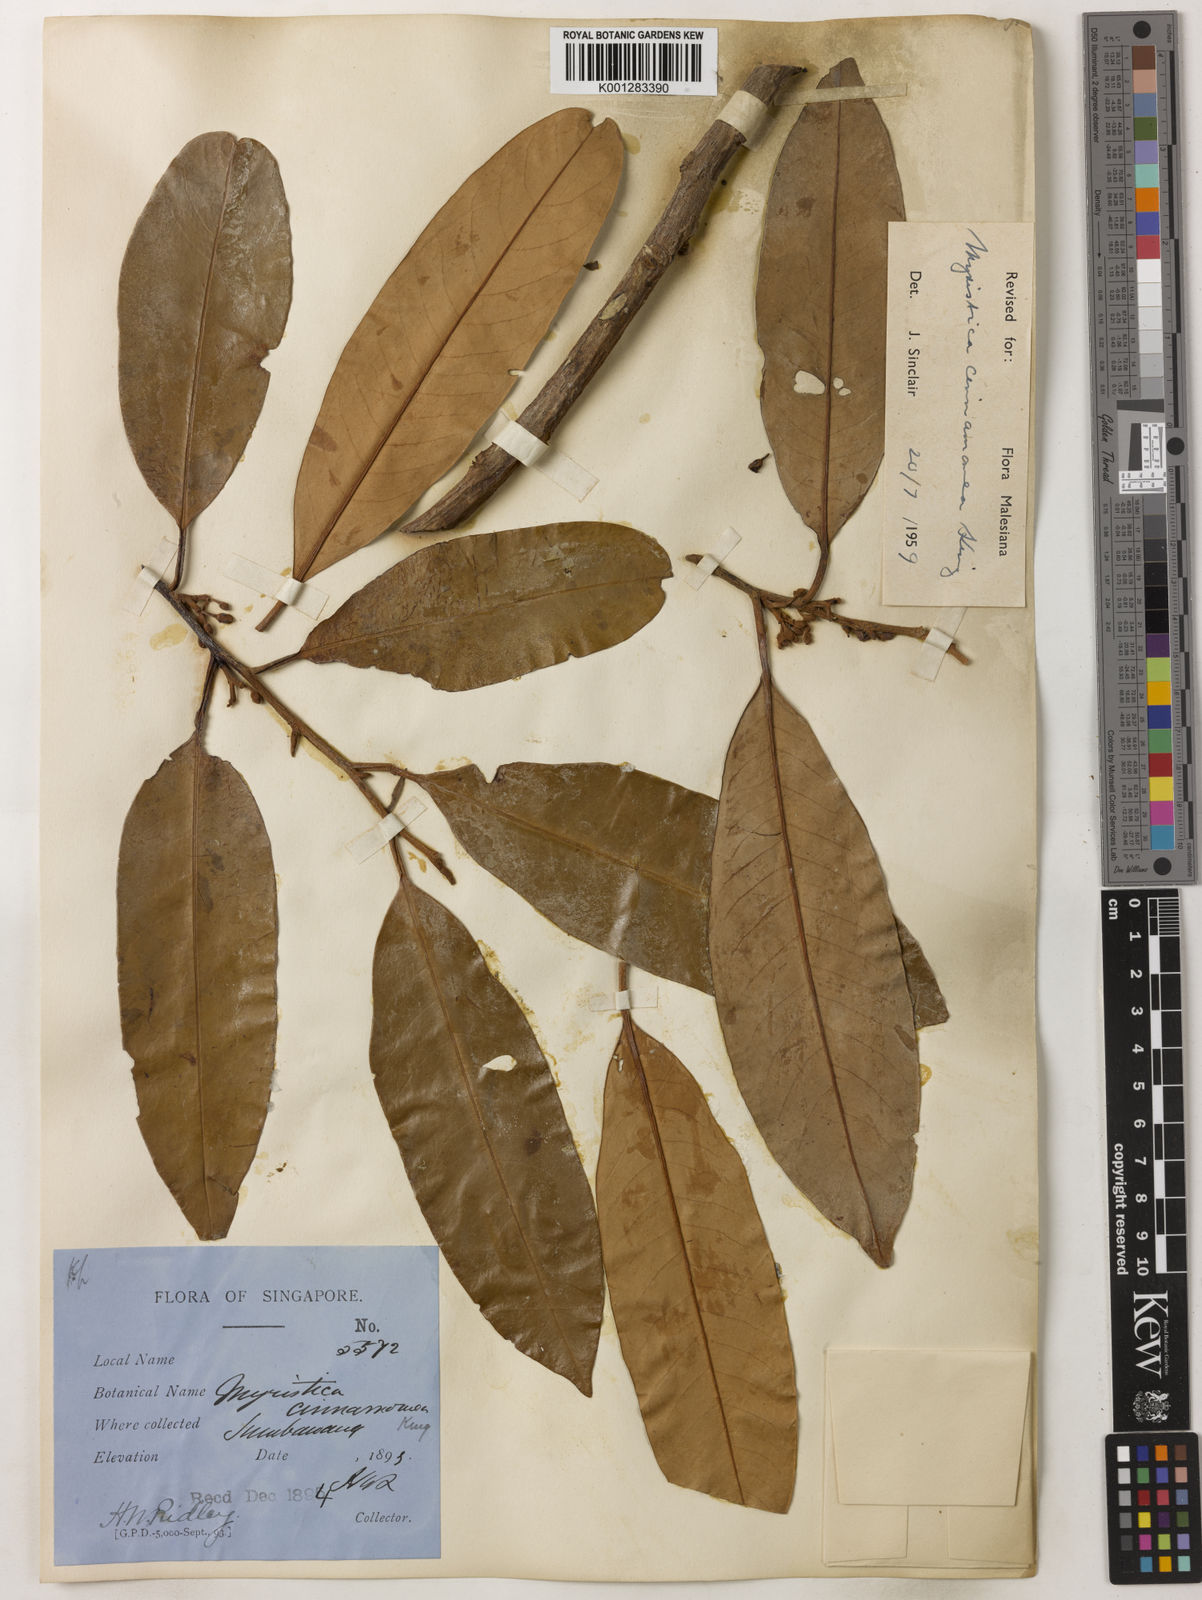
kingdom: Plantae
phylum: Tracheophyta
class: Magnoliopsida
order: Magnoliales
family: Myristicaceae
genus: Myristica
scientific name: Myristica cinnamomea
